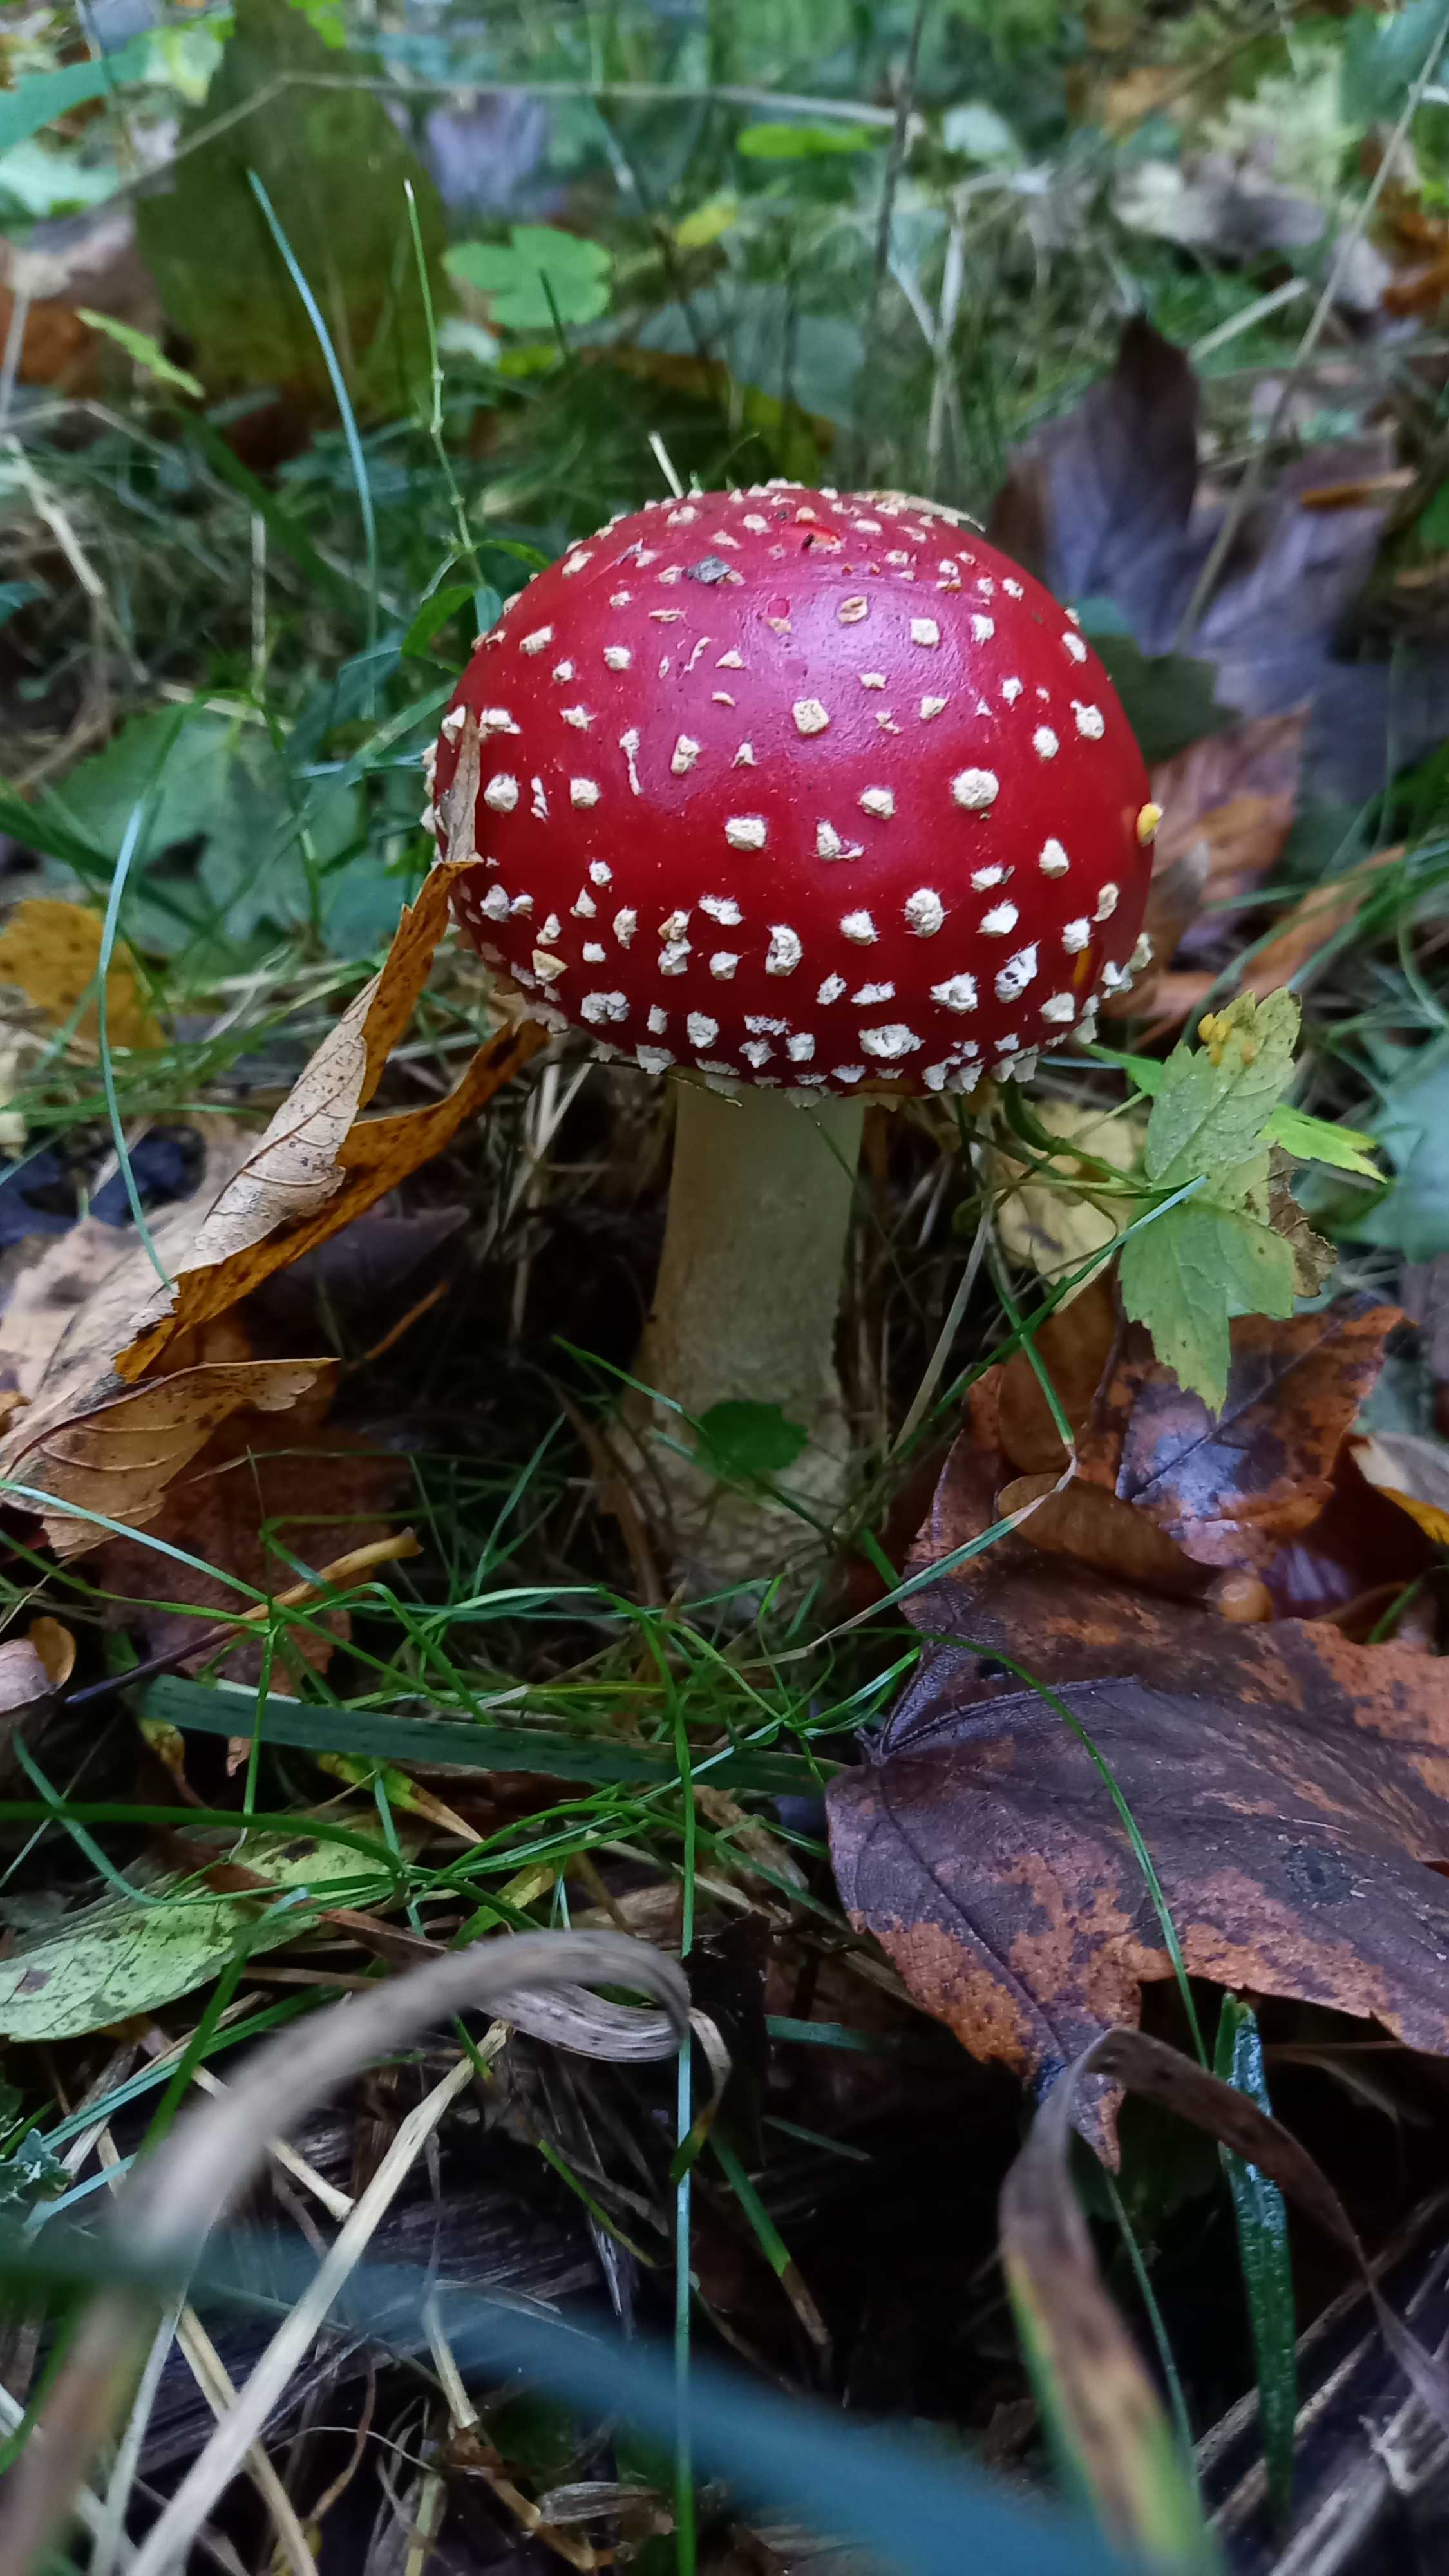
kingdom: Fungi
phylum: Basidiomycota
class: Agaricomycetes
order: Agaricales
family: Amanitaceae
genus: Amanita
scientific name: Amanita muscaria
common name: rød fluesvamp
